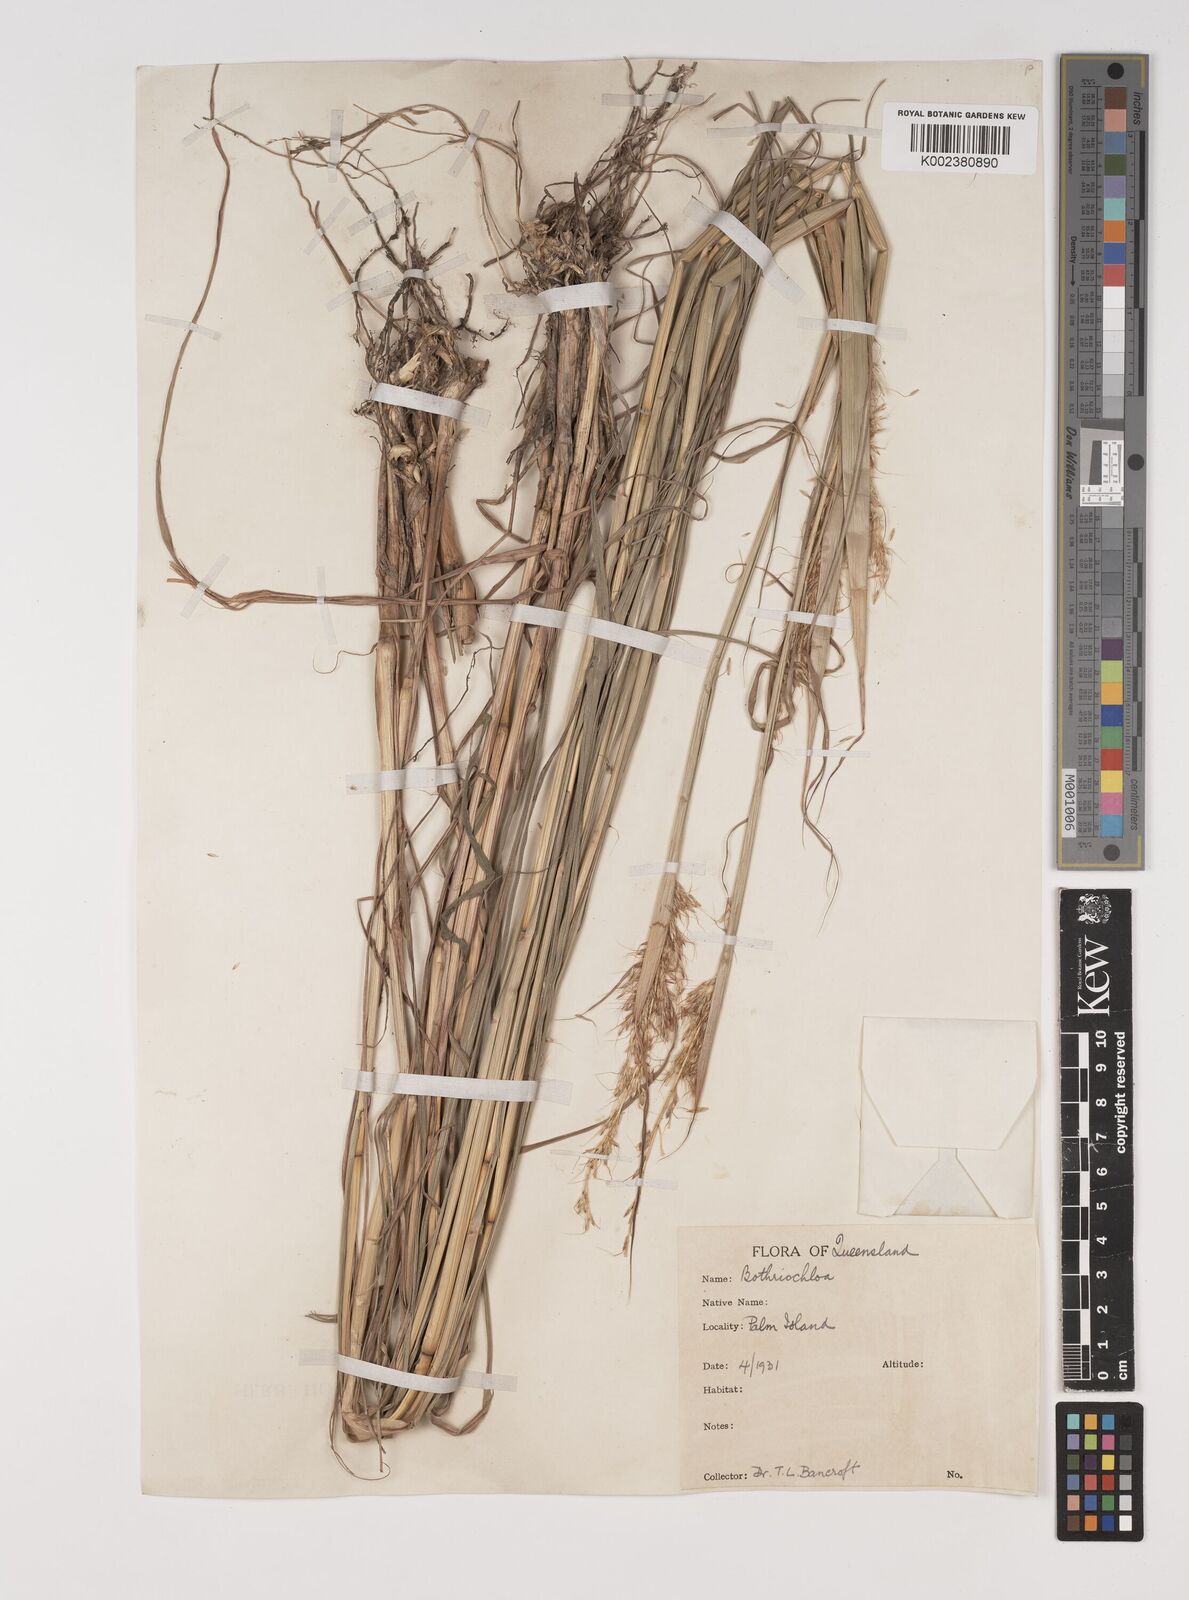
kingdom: Plantae
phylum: Tracheophyta
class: Liliopsida
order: Poales
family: Poaceae
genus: Bothriochloa
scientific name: Bothriochloa bladhii
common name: Caucasian bluestem
